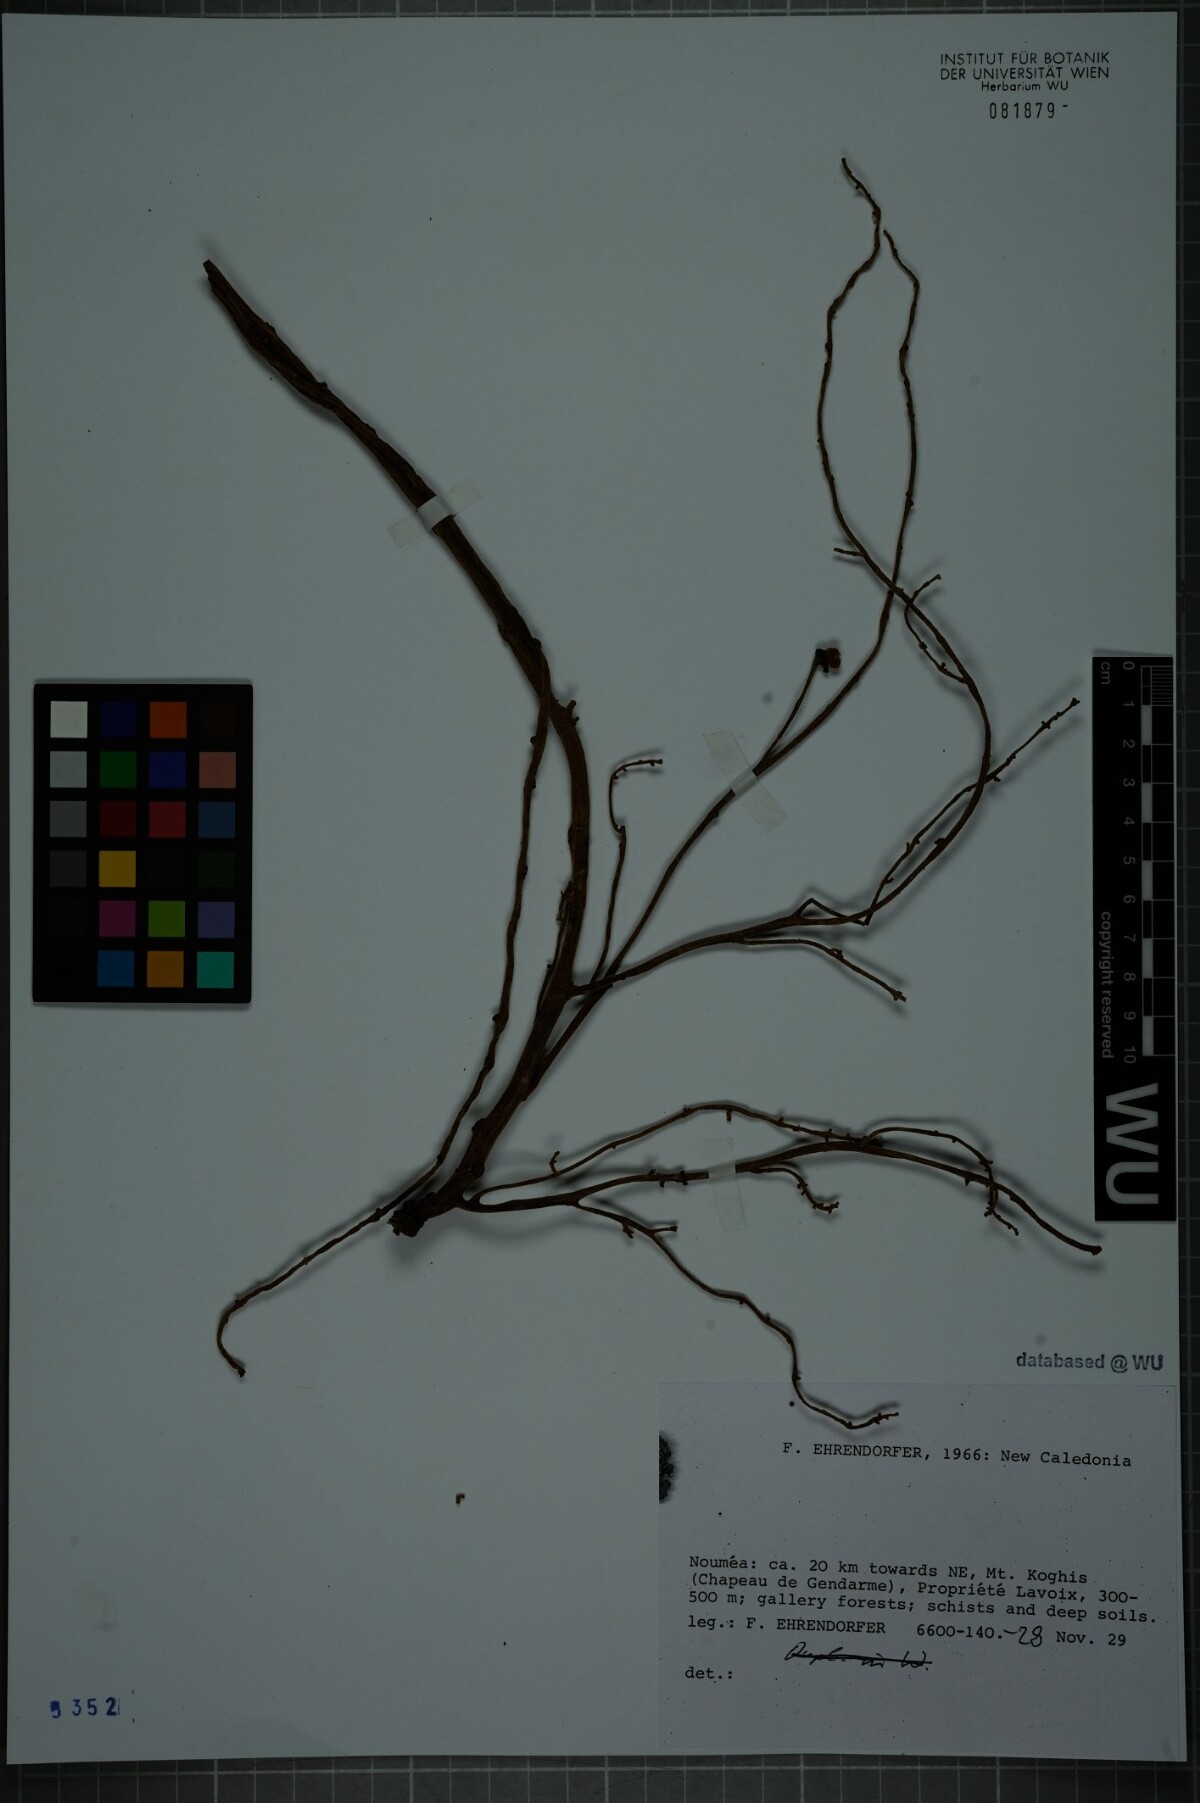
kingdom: Plantae
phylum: Tracheophyta
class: Magnoliopsida
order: Malvales
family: Malvaceae
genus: Acropogon
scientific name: Acropogon megaphyllus
